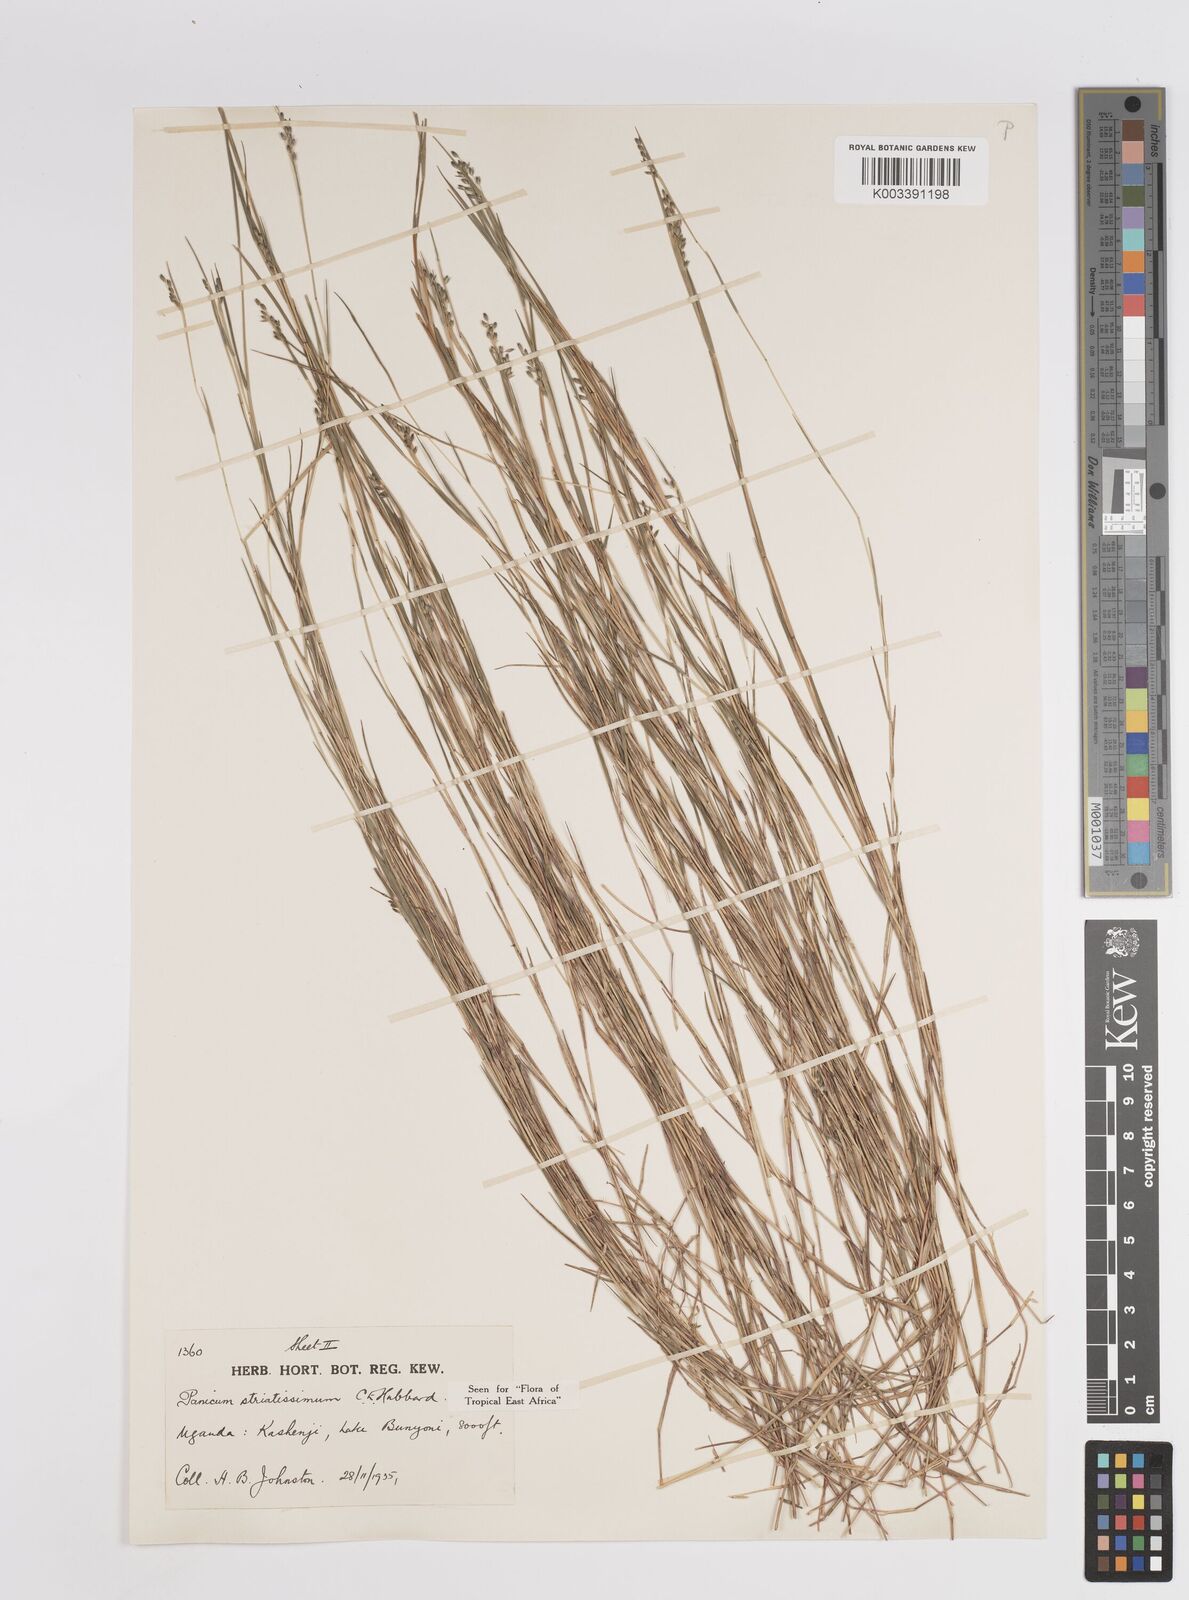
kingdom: Plantae
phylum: Tracheophyta
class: Liliopsida
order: Poales
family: Poaceae
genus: Panicum
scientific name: Panicum eickii
